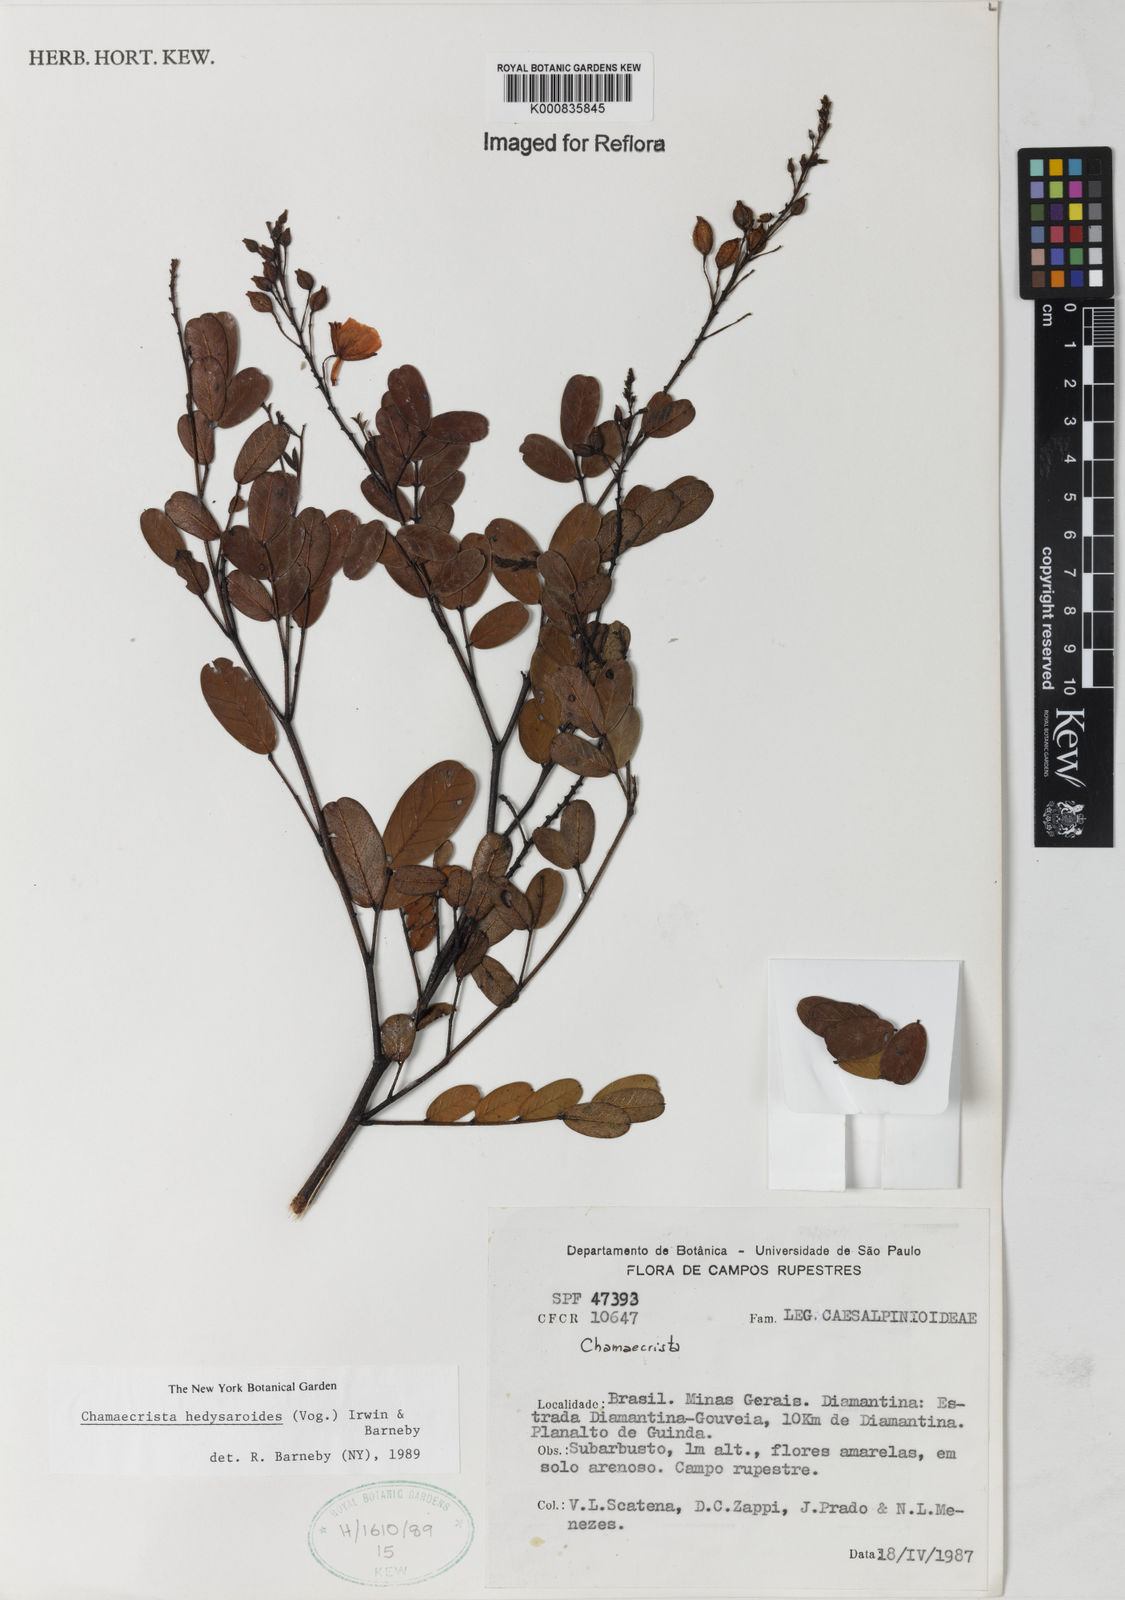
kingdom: Plantae
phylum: Tracheophyta
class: Magnoliopsida
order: Fabales
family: Fabaceae
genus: Chamaecrista
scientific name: Chamaecrista hedysaroides
